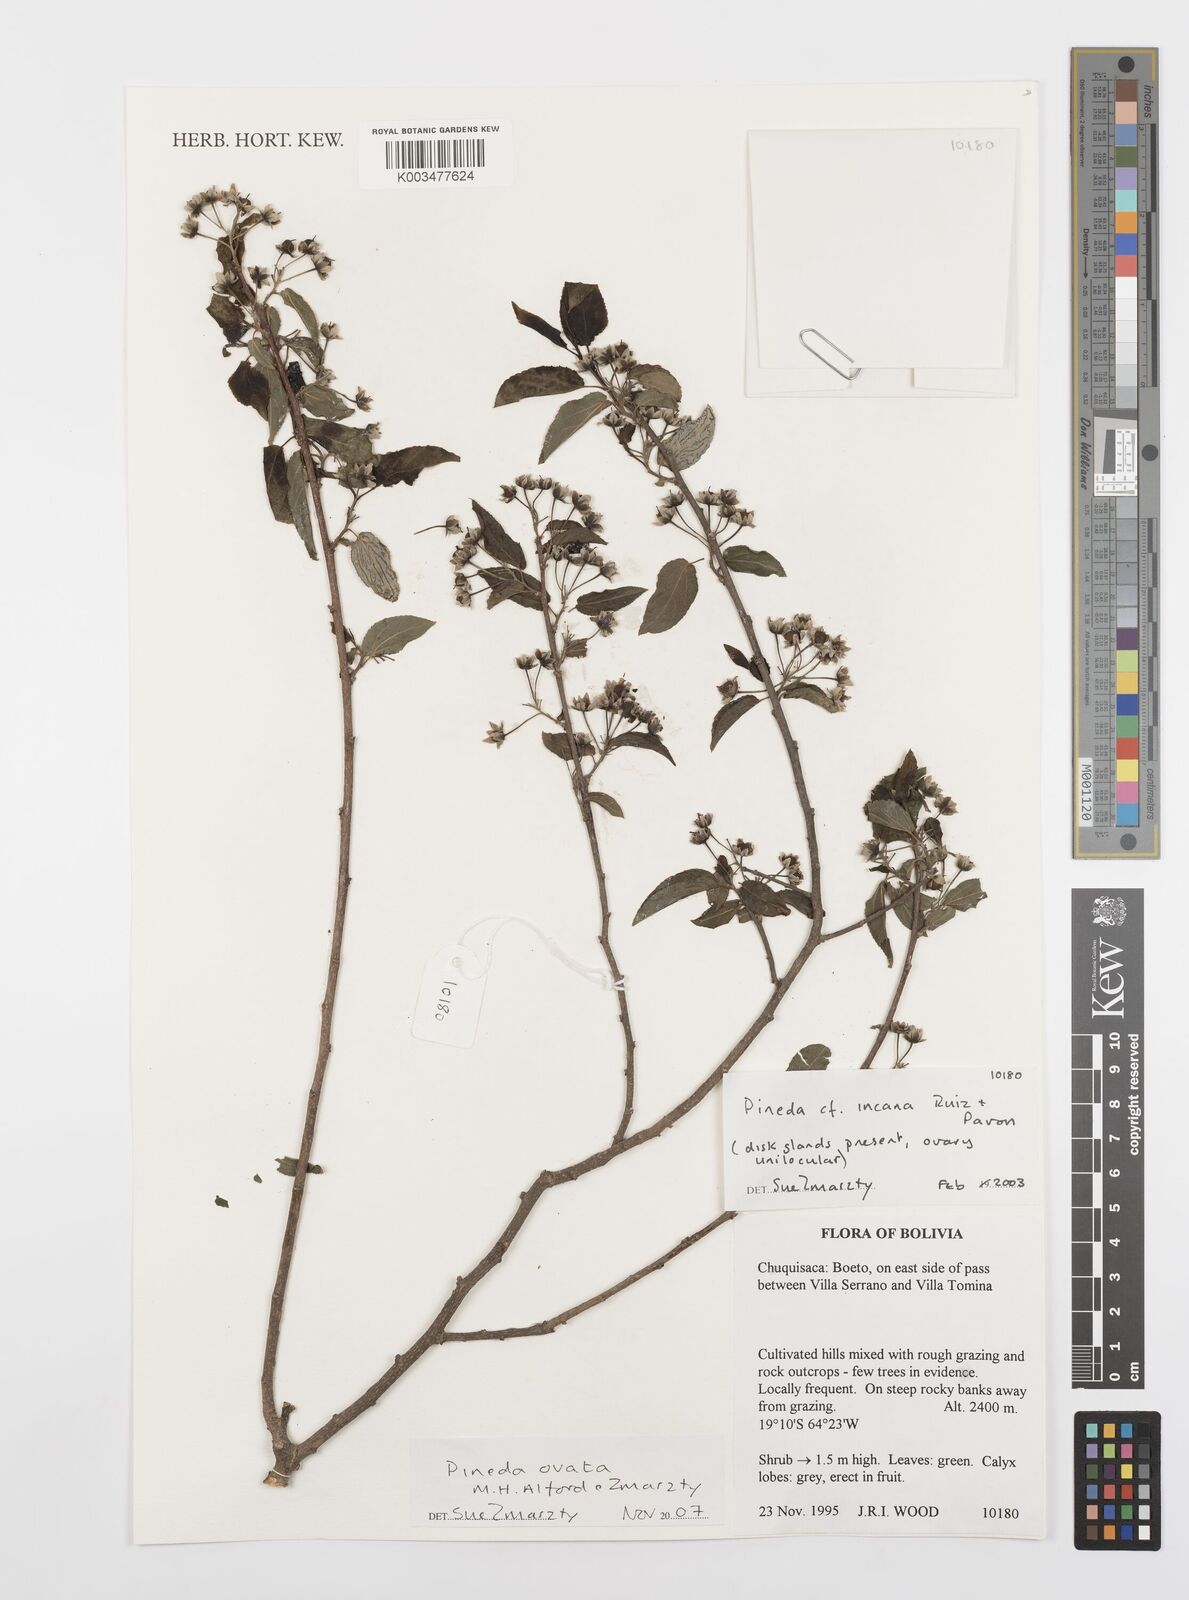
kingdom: Plantae
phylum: Tracheophyta
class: Magnoliopsida
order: Malpighiales
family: Salicaceae
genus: Pineda
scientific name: Pineda ovata
